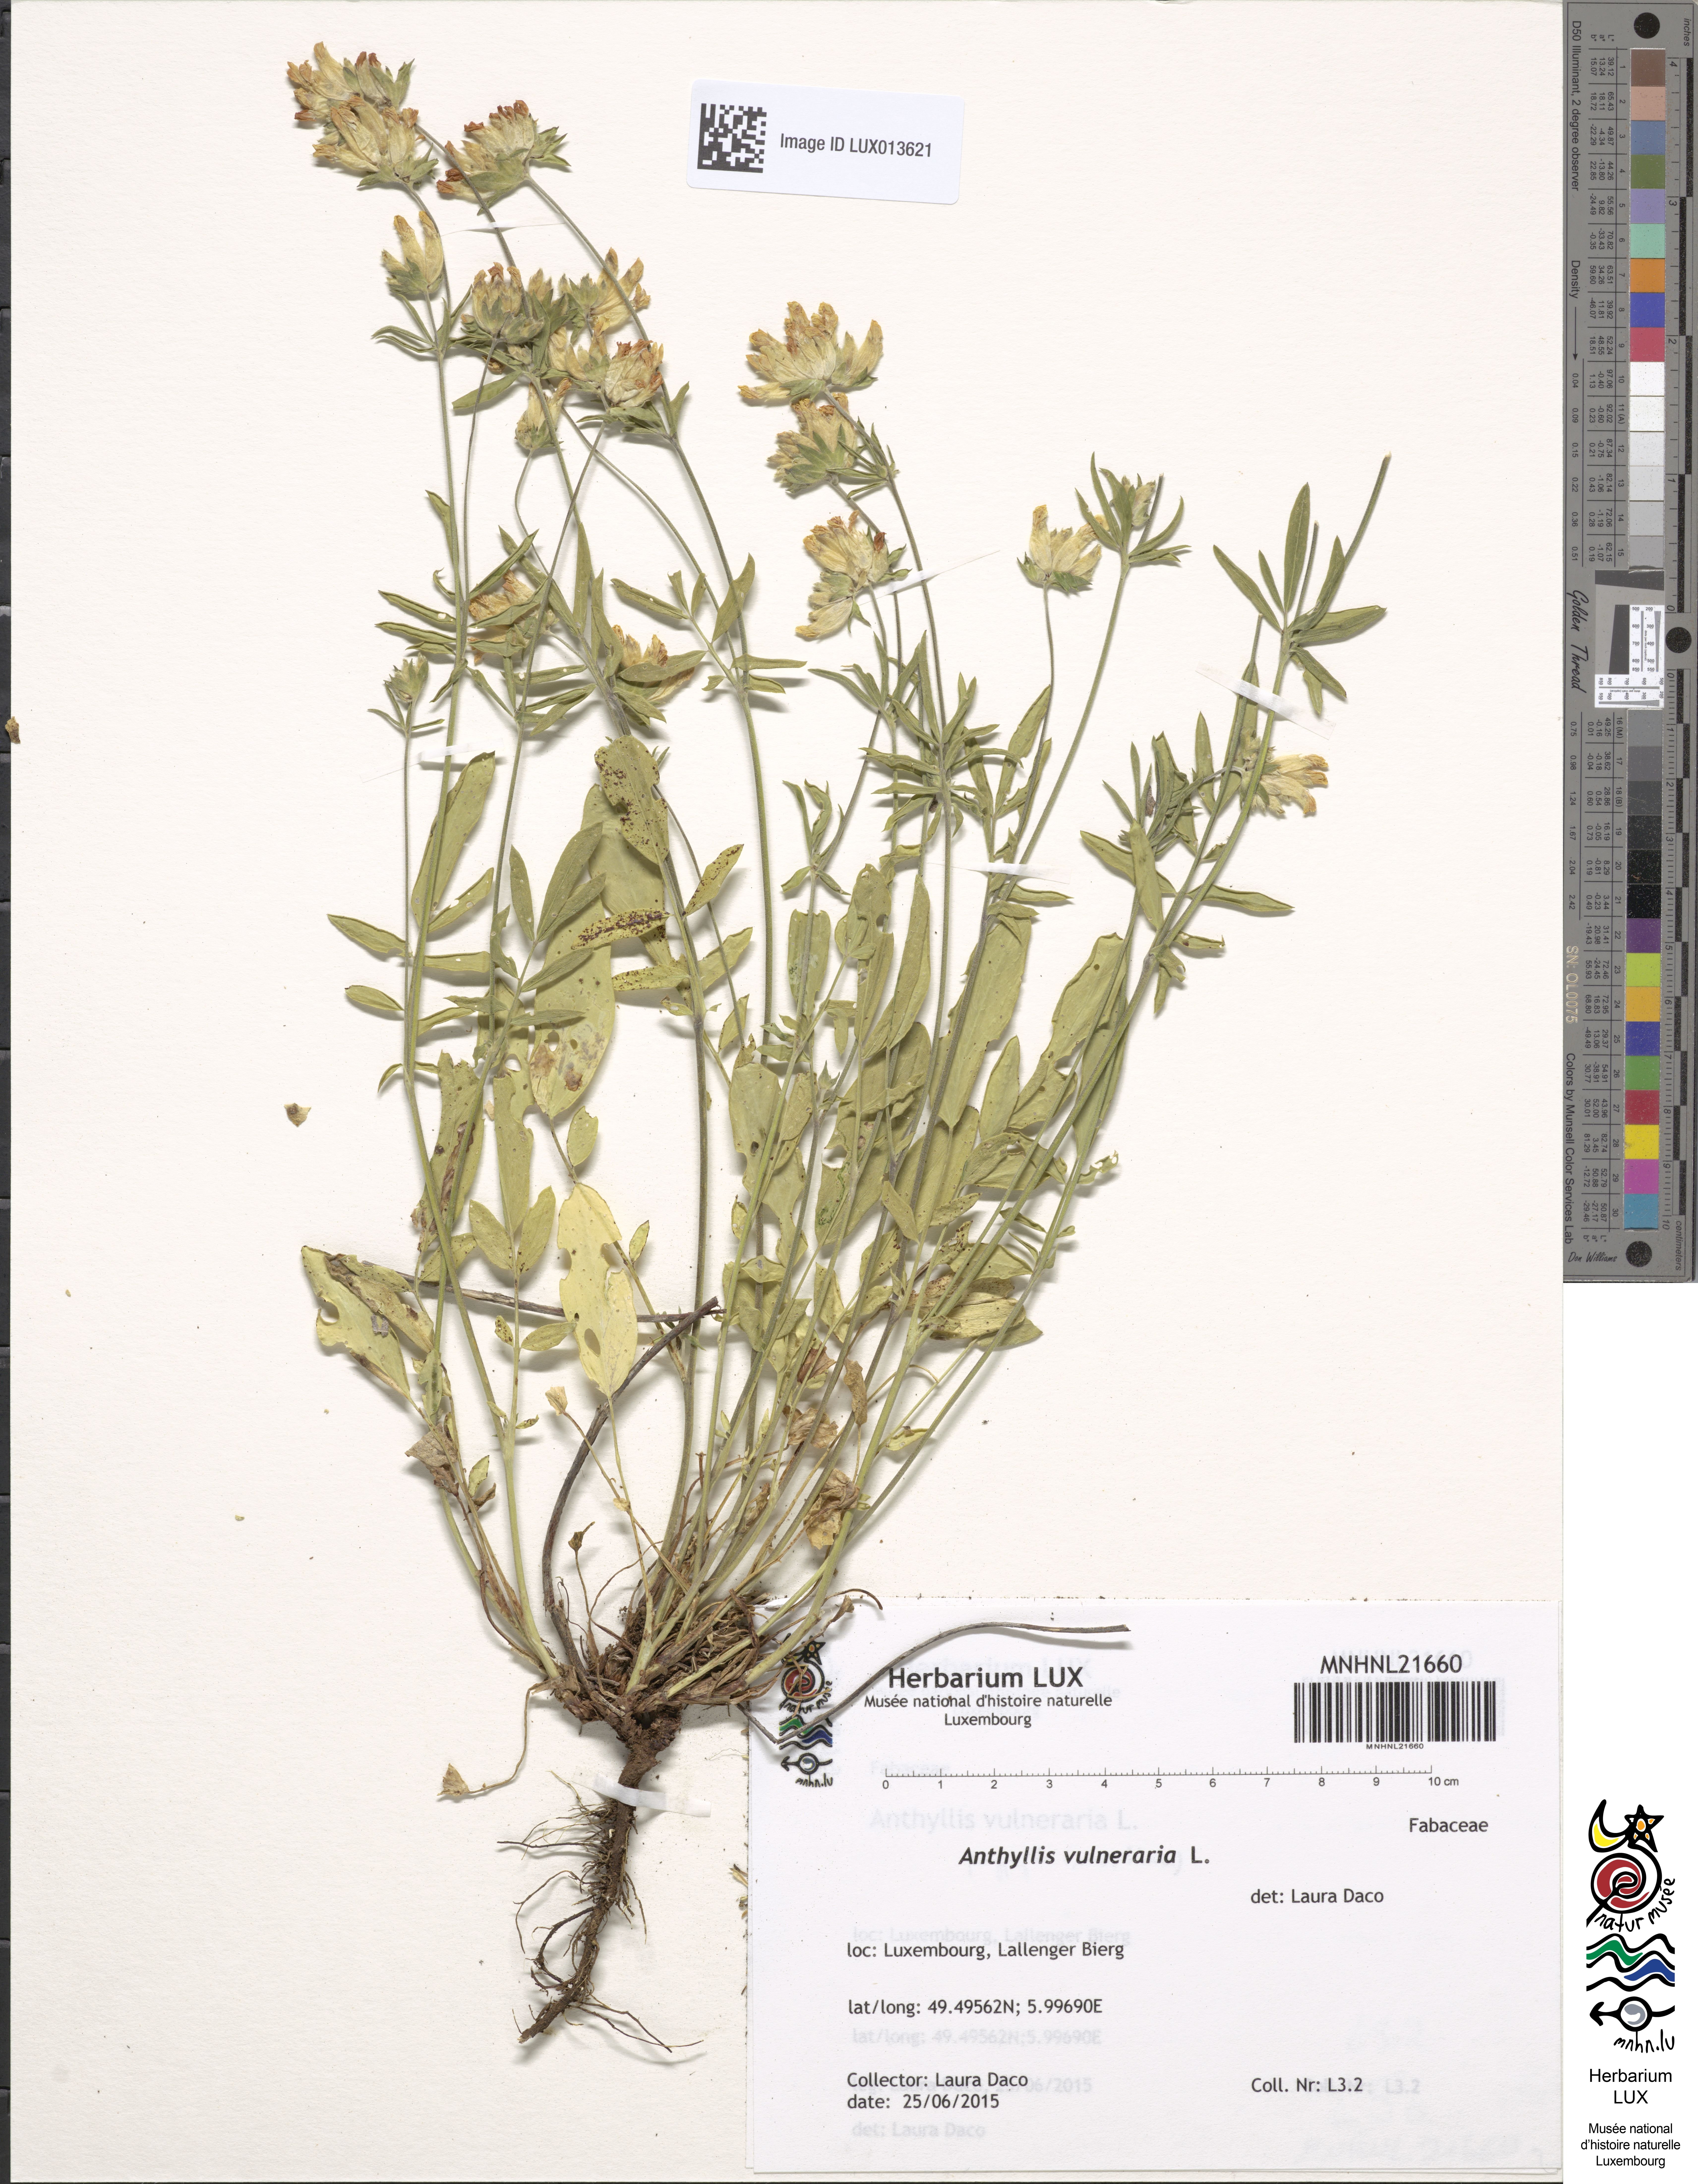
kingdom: Plantae
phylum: Tracheophyta
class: Magnoliopsida
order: Fabales
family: Fabaceae
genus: Anthyllis
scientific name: Anthyllis vulneraria
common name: Kidney vetch
